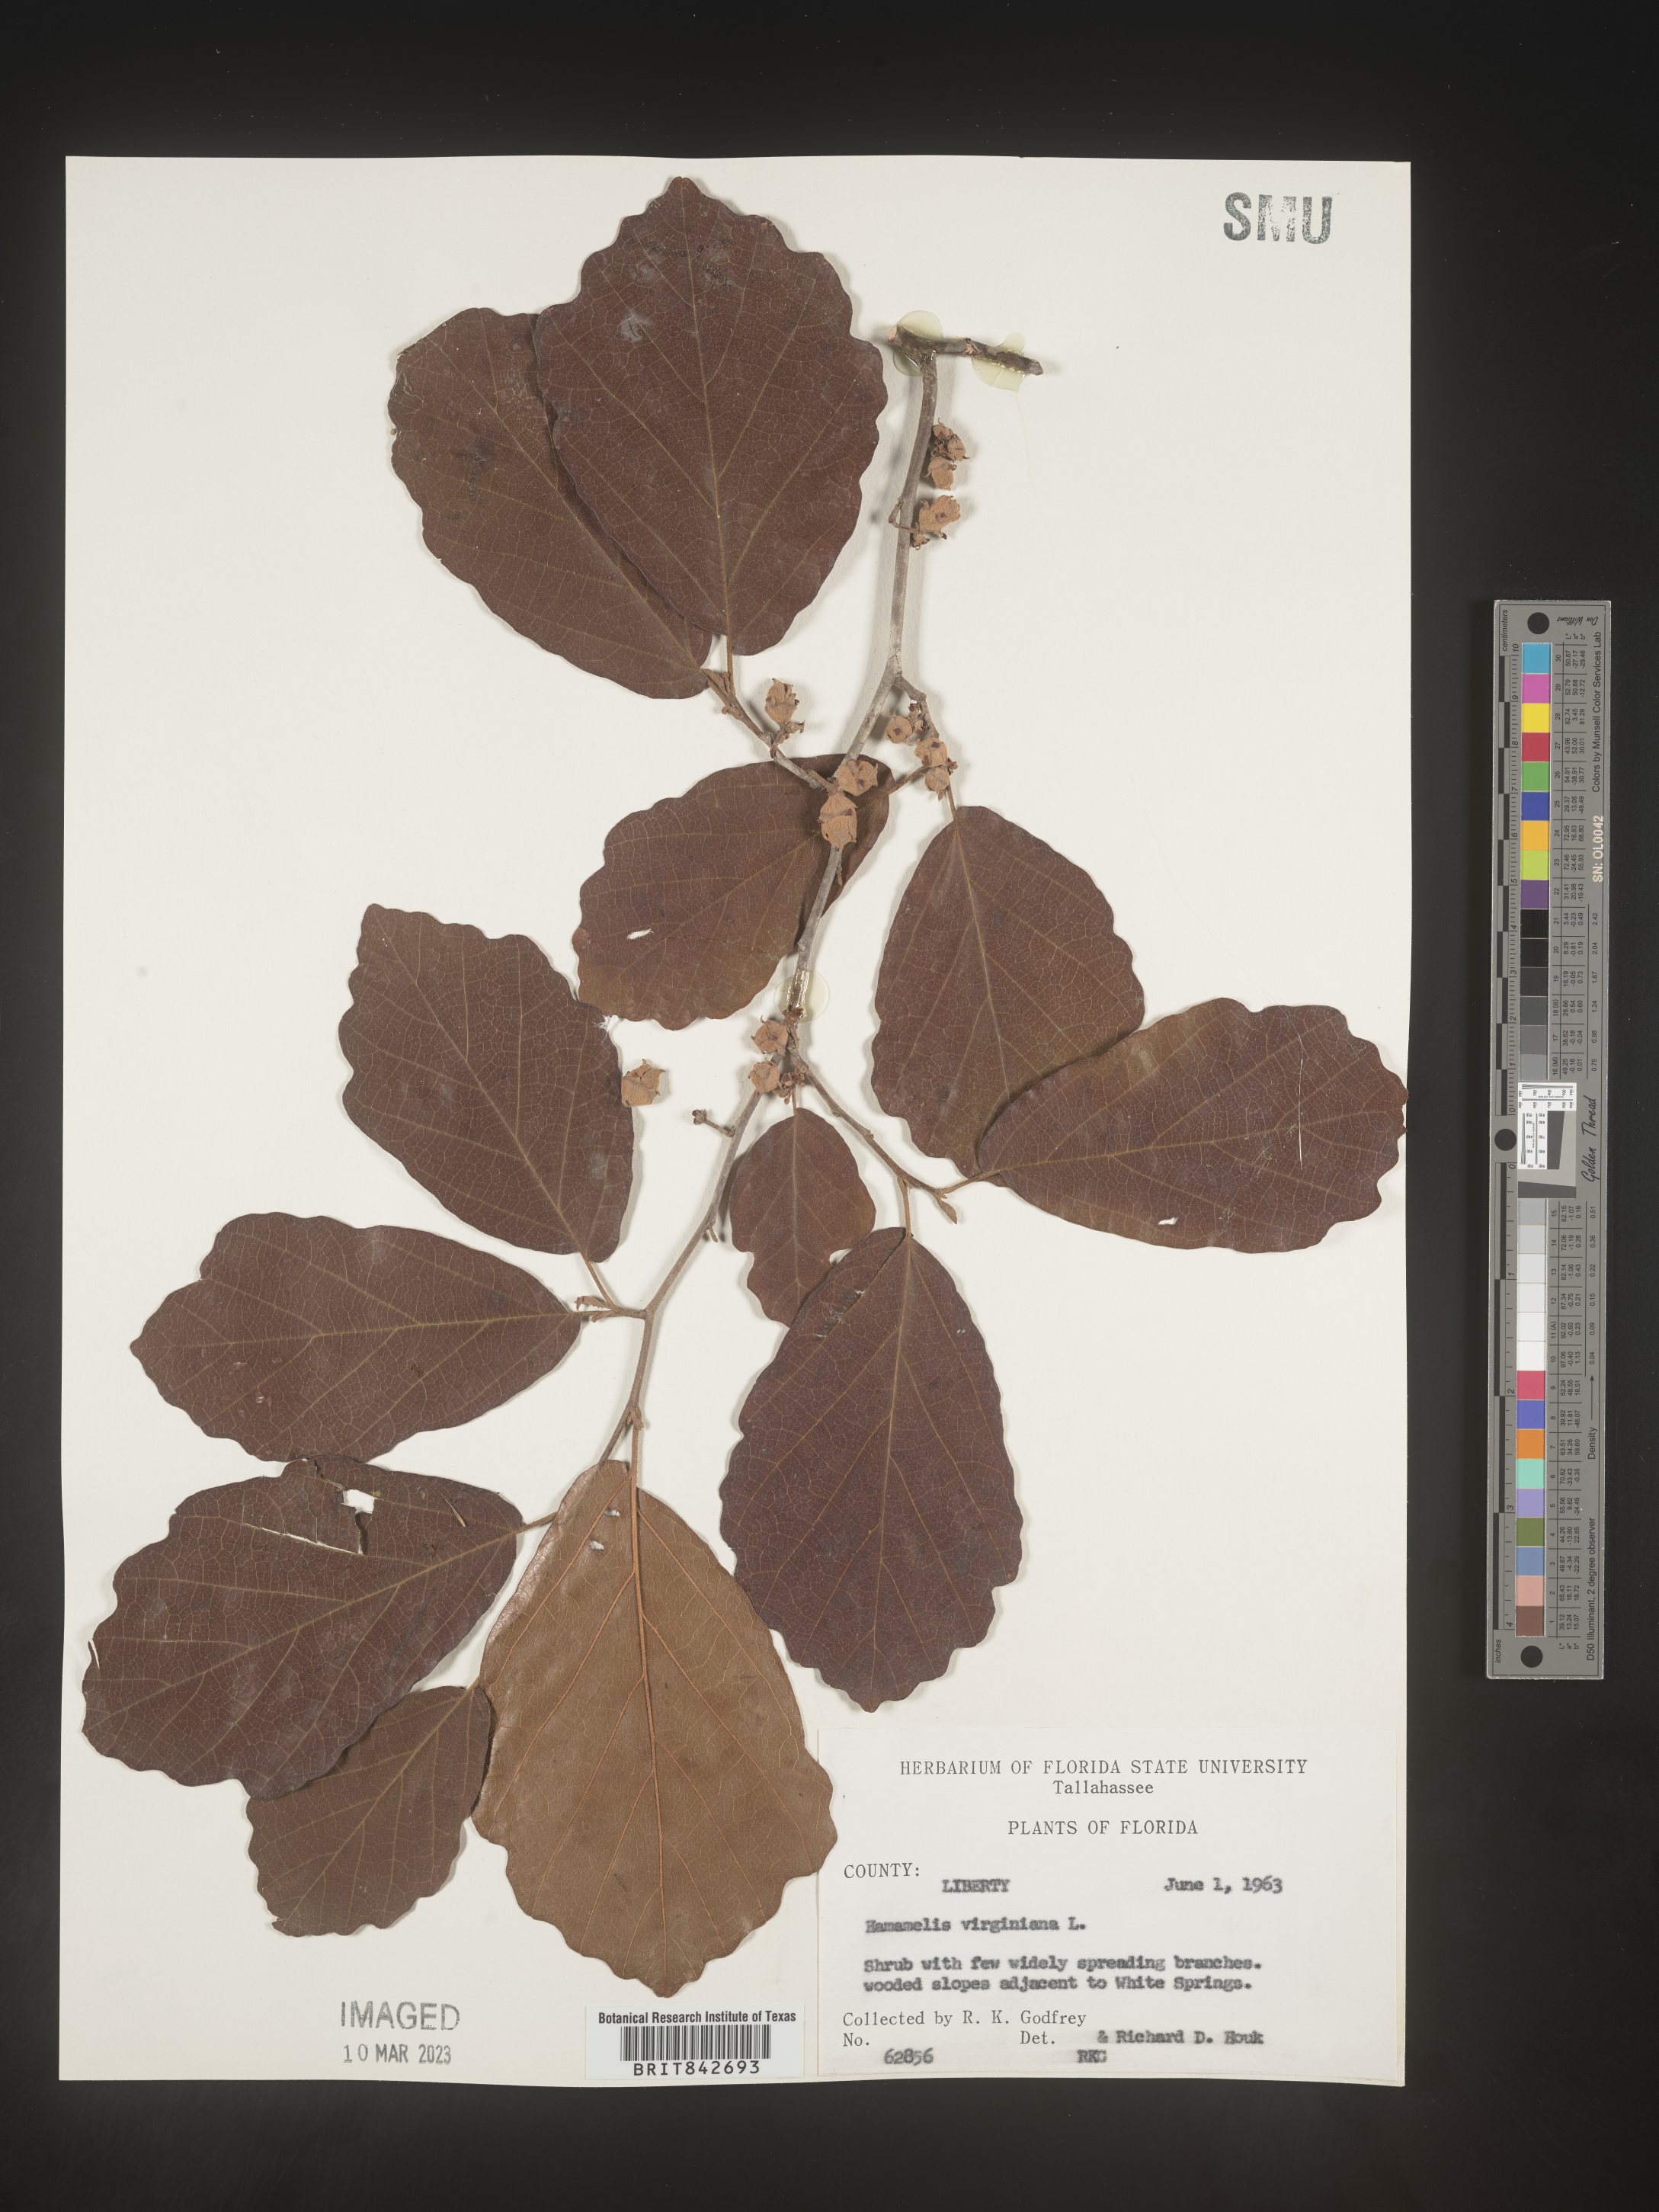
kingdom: Plantae
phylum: Tracheophyta
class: Magnoliopsida
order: Saxifragales
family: Hamamelidaceae
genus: Hamamelis
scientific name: Hamamelis virginiana
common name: Witch-hazel
